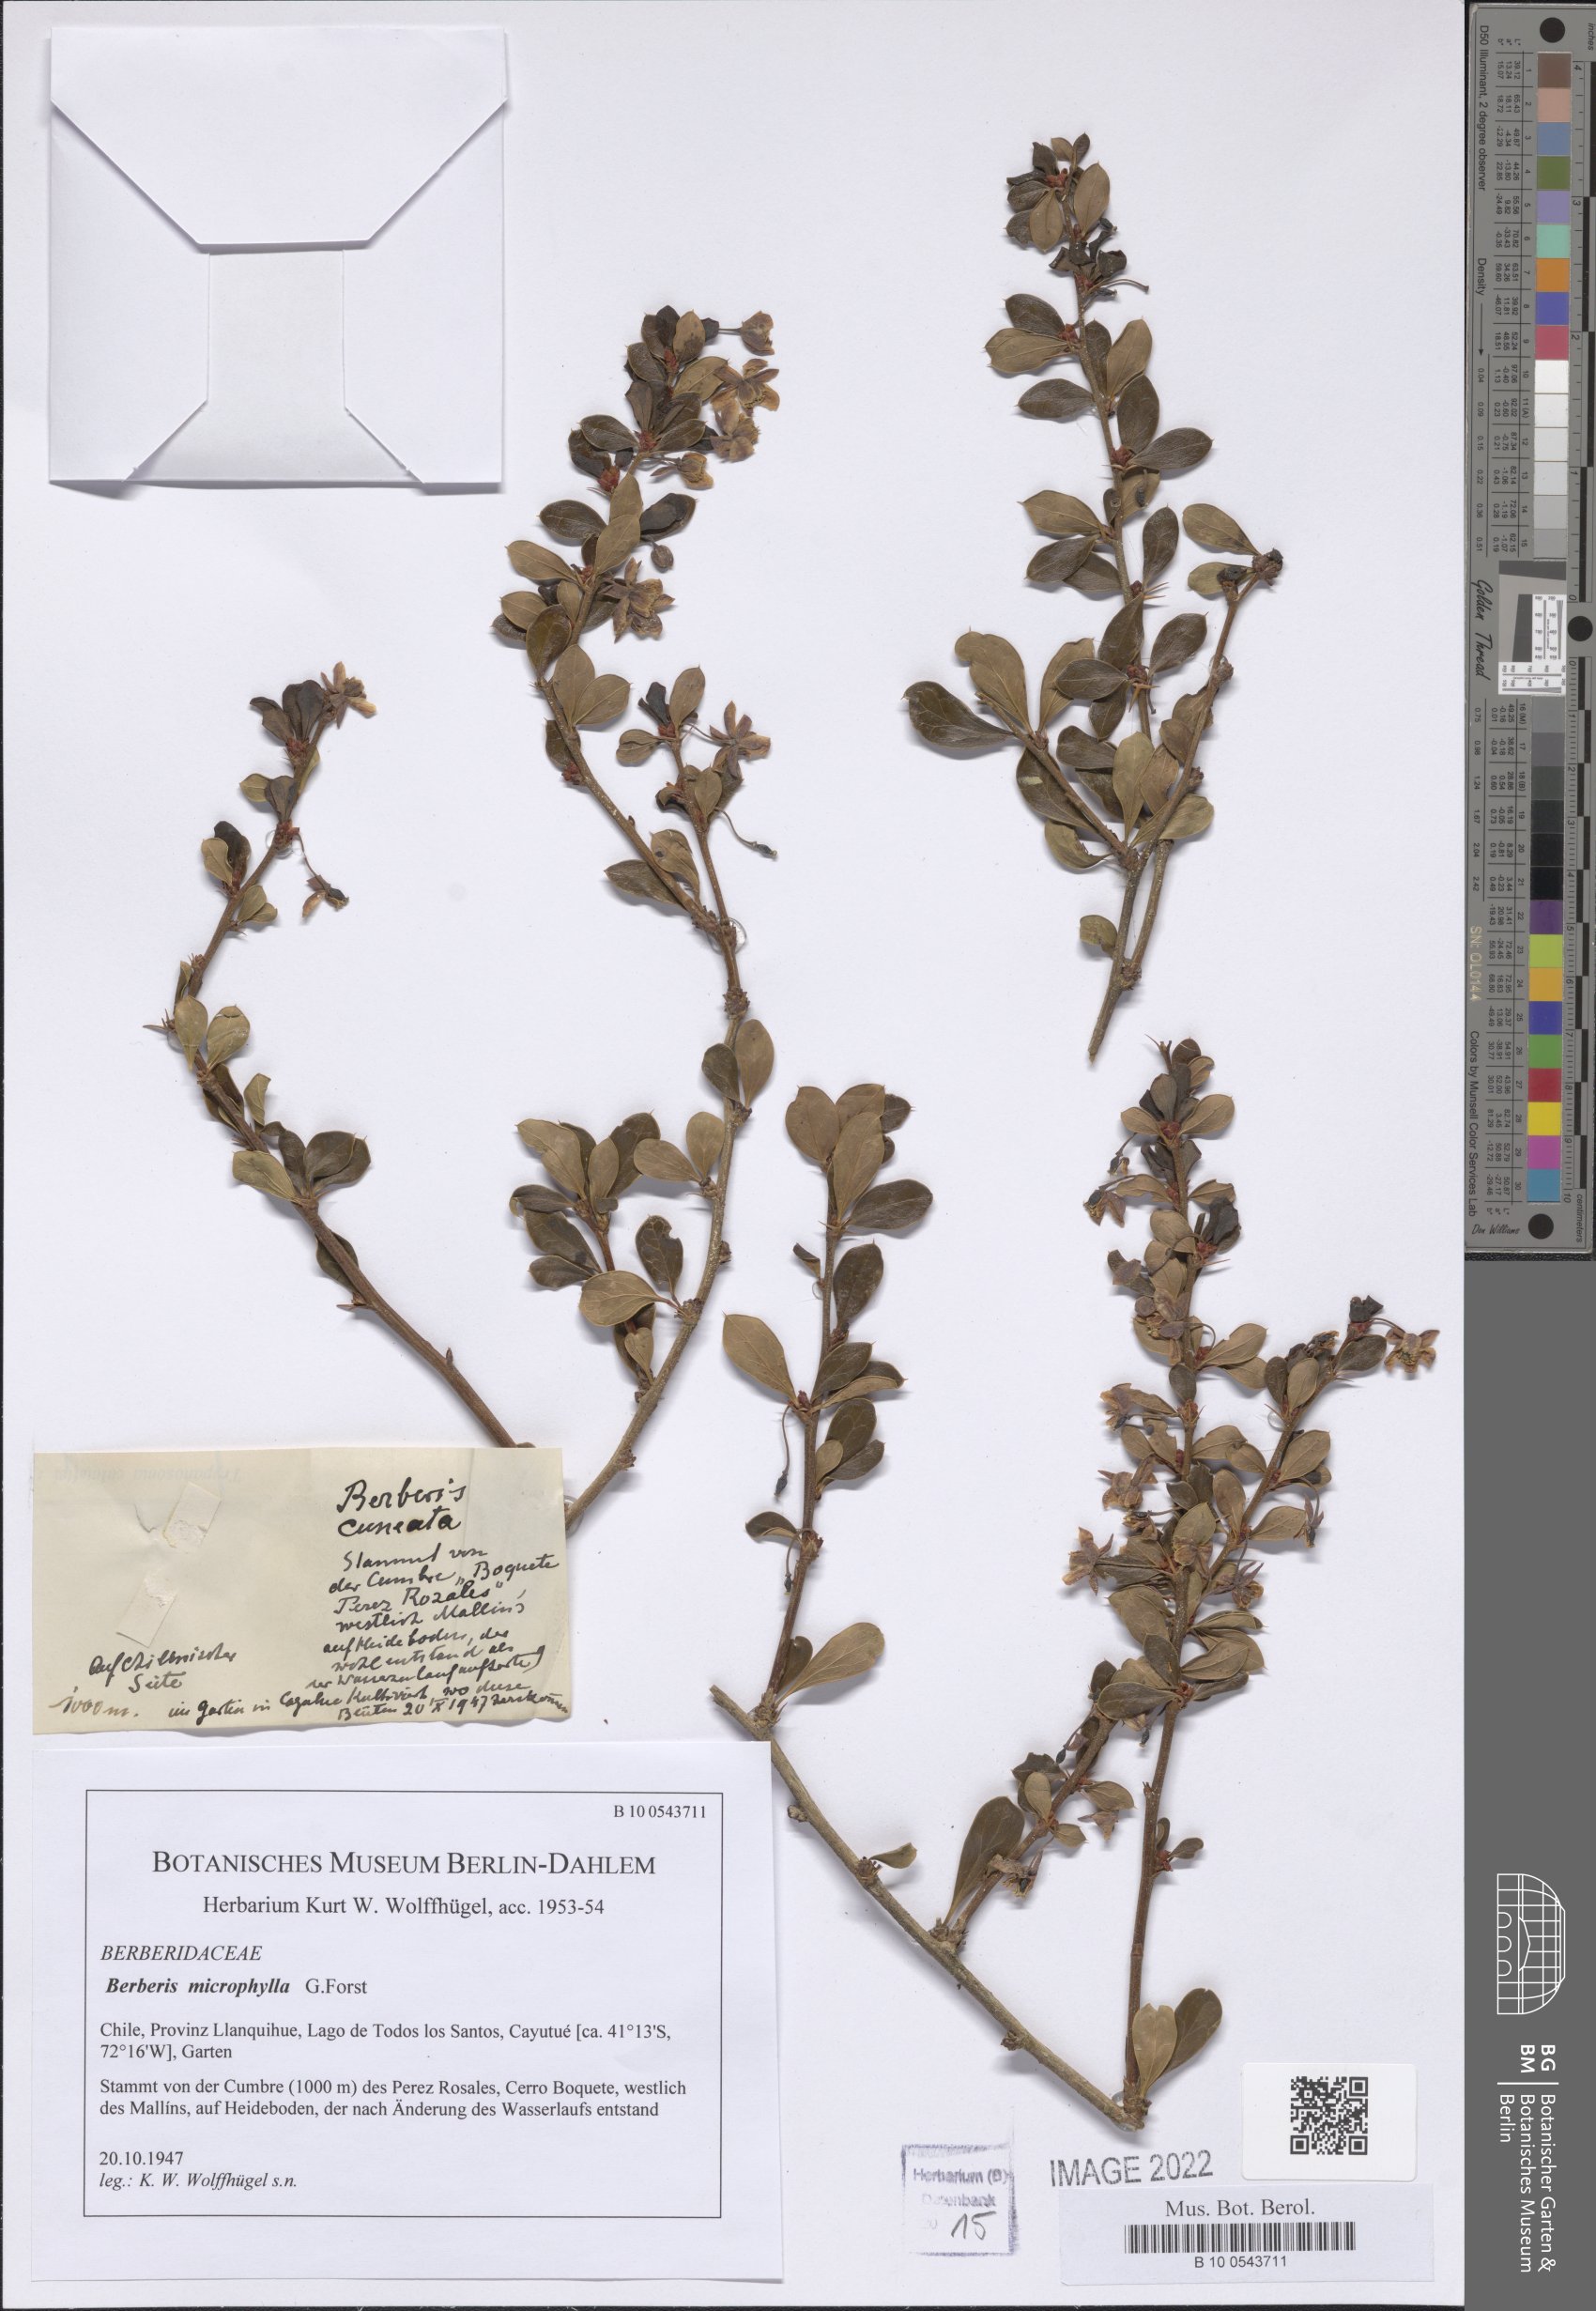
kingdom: Plantae
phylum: Tracheophyta
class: Magnoliopsida
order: Ranunculales
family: Berberidaceae
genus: Berberis
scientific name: Berberis microphylla
